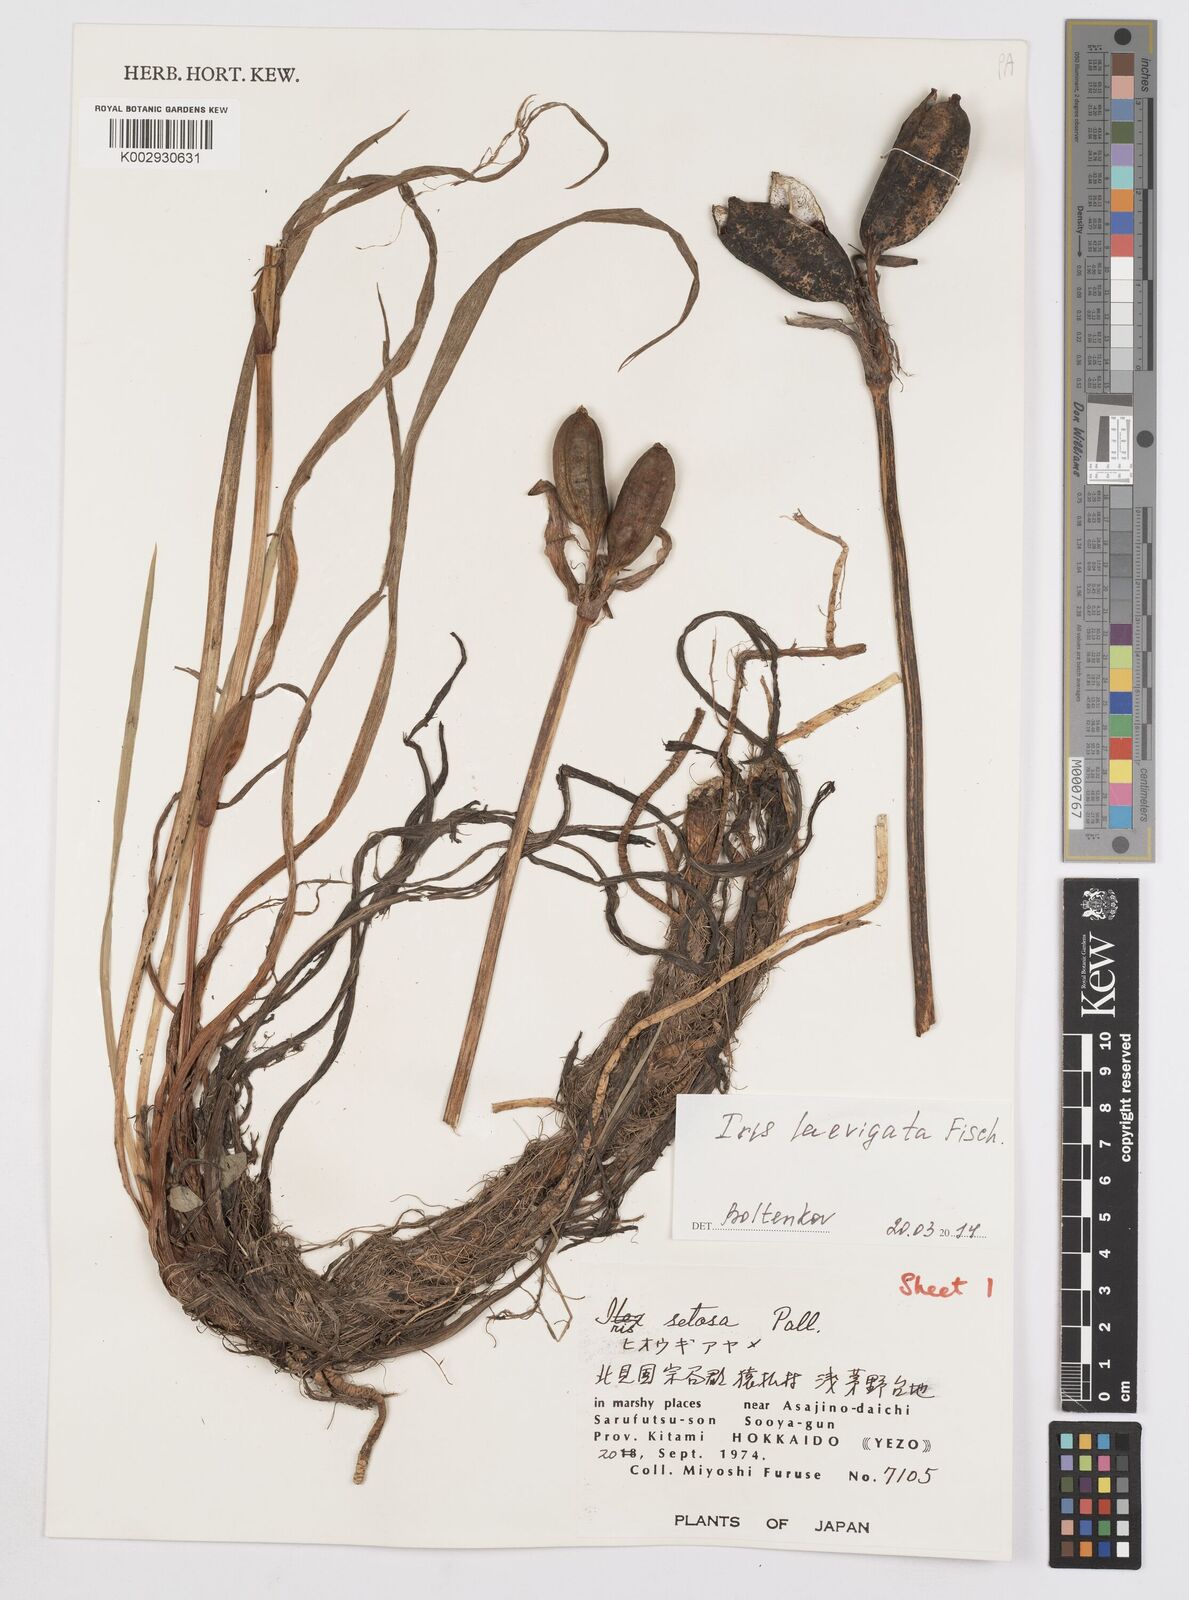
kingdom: Plantae
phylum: Tracheophyta
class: Liliopsida
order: Asparagales
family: Iridaceae
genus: Iris
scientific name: Iris laevigata
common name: Japanese iris
